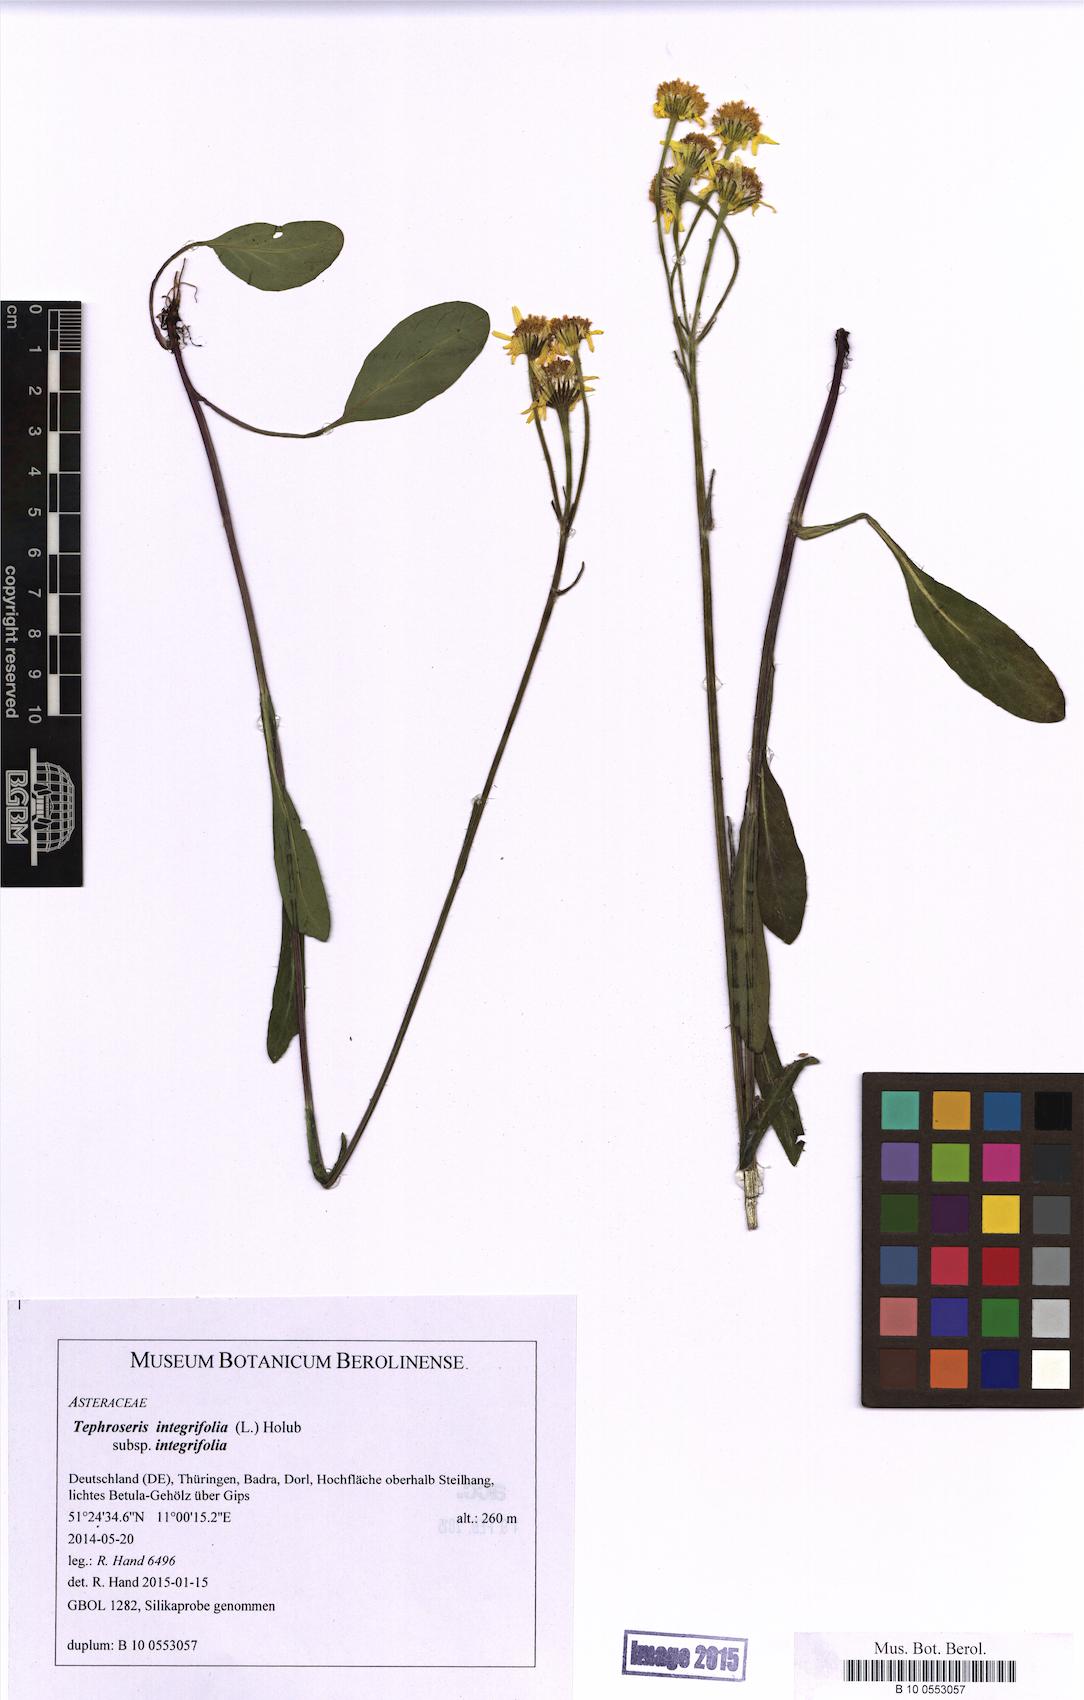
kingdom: Plantae
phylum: Tracheophyta
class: Magnoliopsida
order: Asterales
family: Asteraceae
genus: Tephroseris
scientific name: Tephroseris integrifolia
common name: Field fleawort
